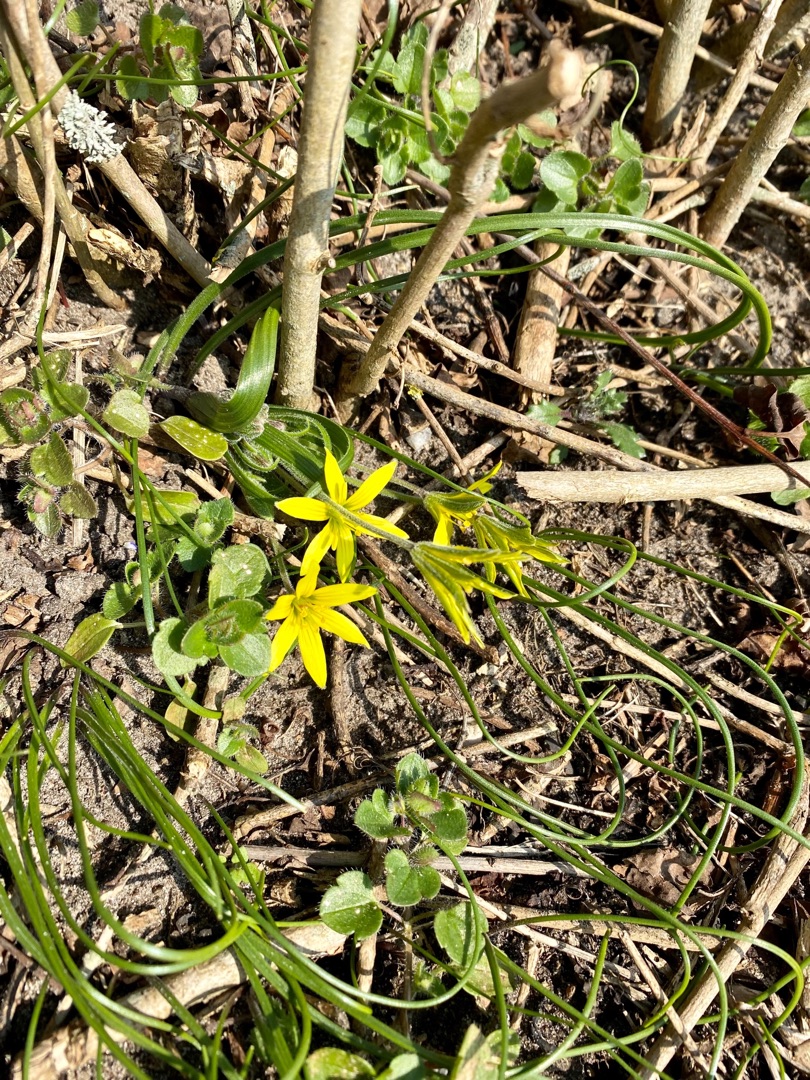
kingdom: Plantae
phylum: Tracheophyta
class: Liliopsida
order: Liliales
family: Liliaceae
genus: Gagea
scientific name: Gagea villosa
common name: Ager-guldstjerne
